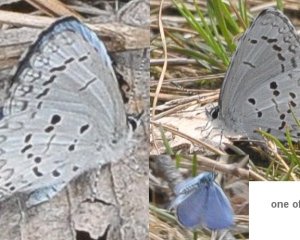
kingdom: Animalia
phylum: Arthropoda
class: Insecta
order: Lepidoptera
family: Lycaenidae
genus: Celastrina
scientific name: Celastrina lucia
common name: Northern Spring Azure
